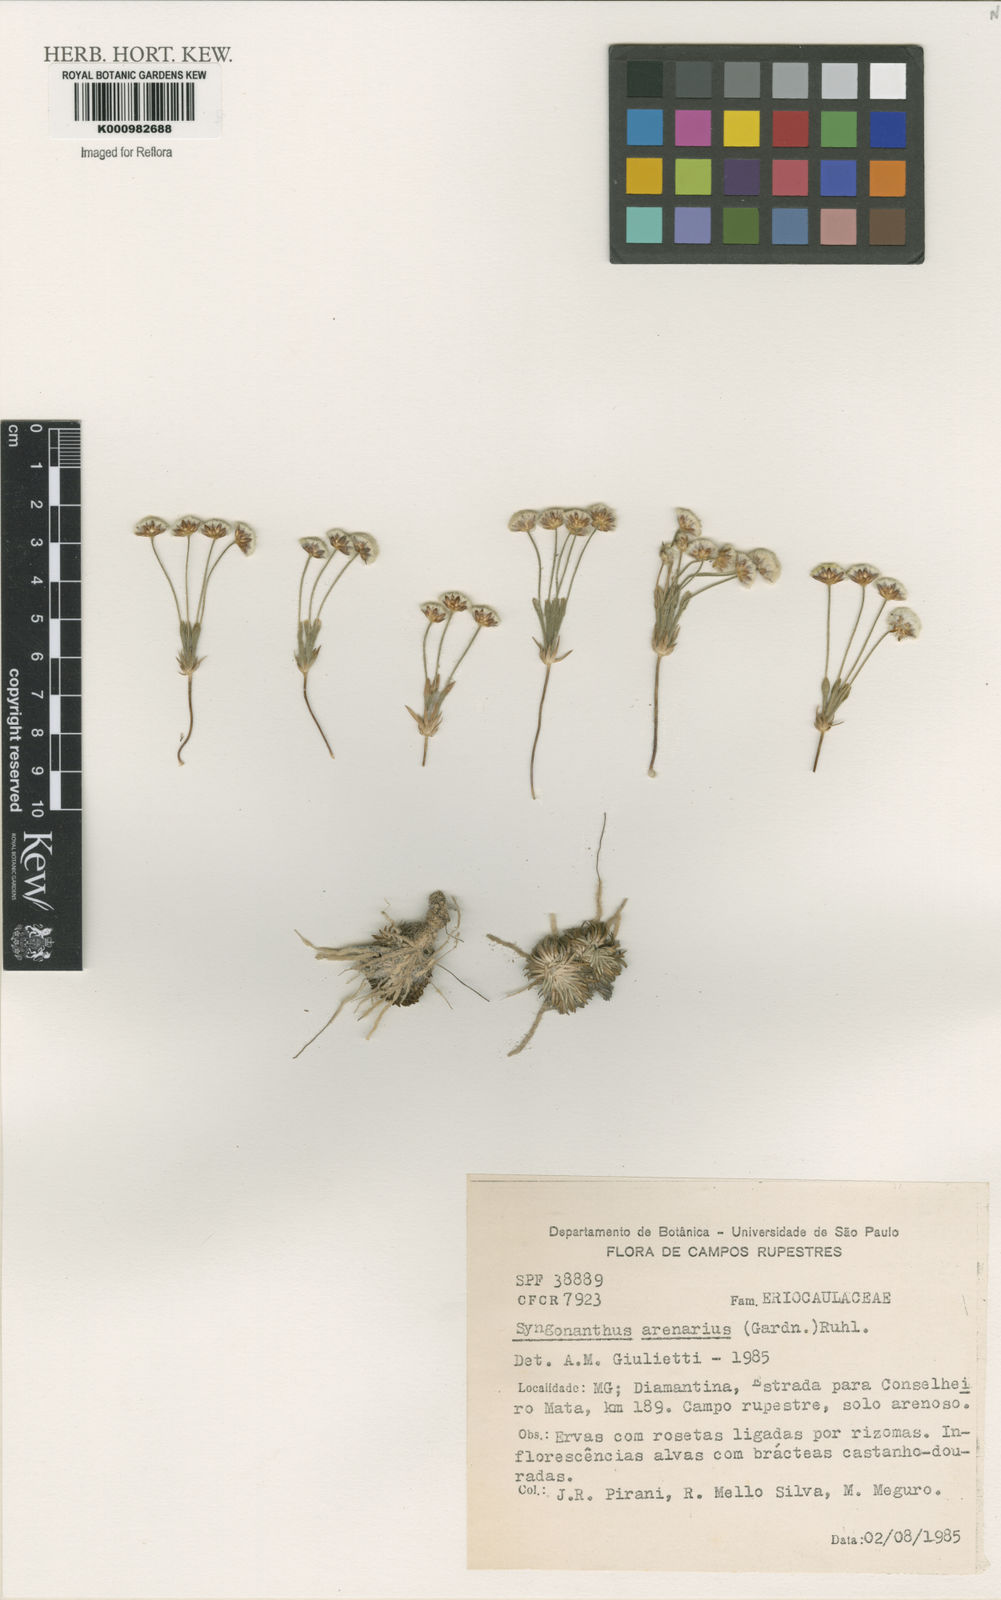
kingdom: Plantae
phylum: Tracheophyta
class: Liliopsida
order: Poales
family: Eriocaulaceae
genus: Syngonanthus
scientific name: Syngonanthus arenarius
